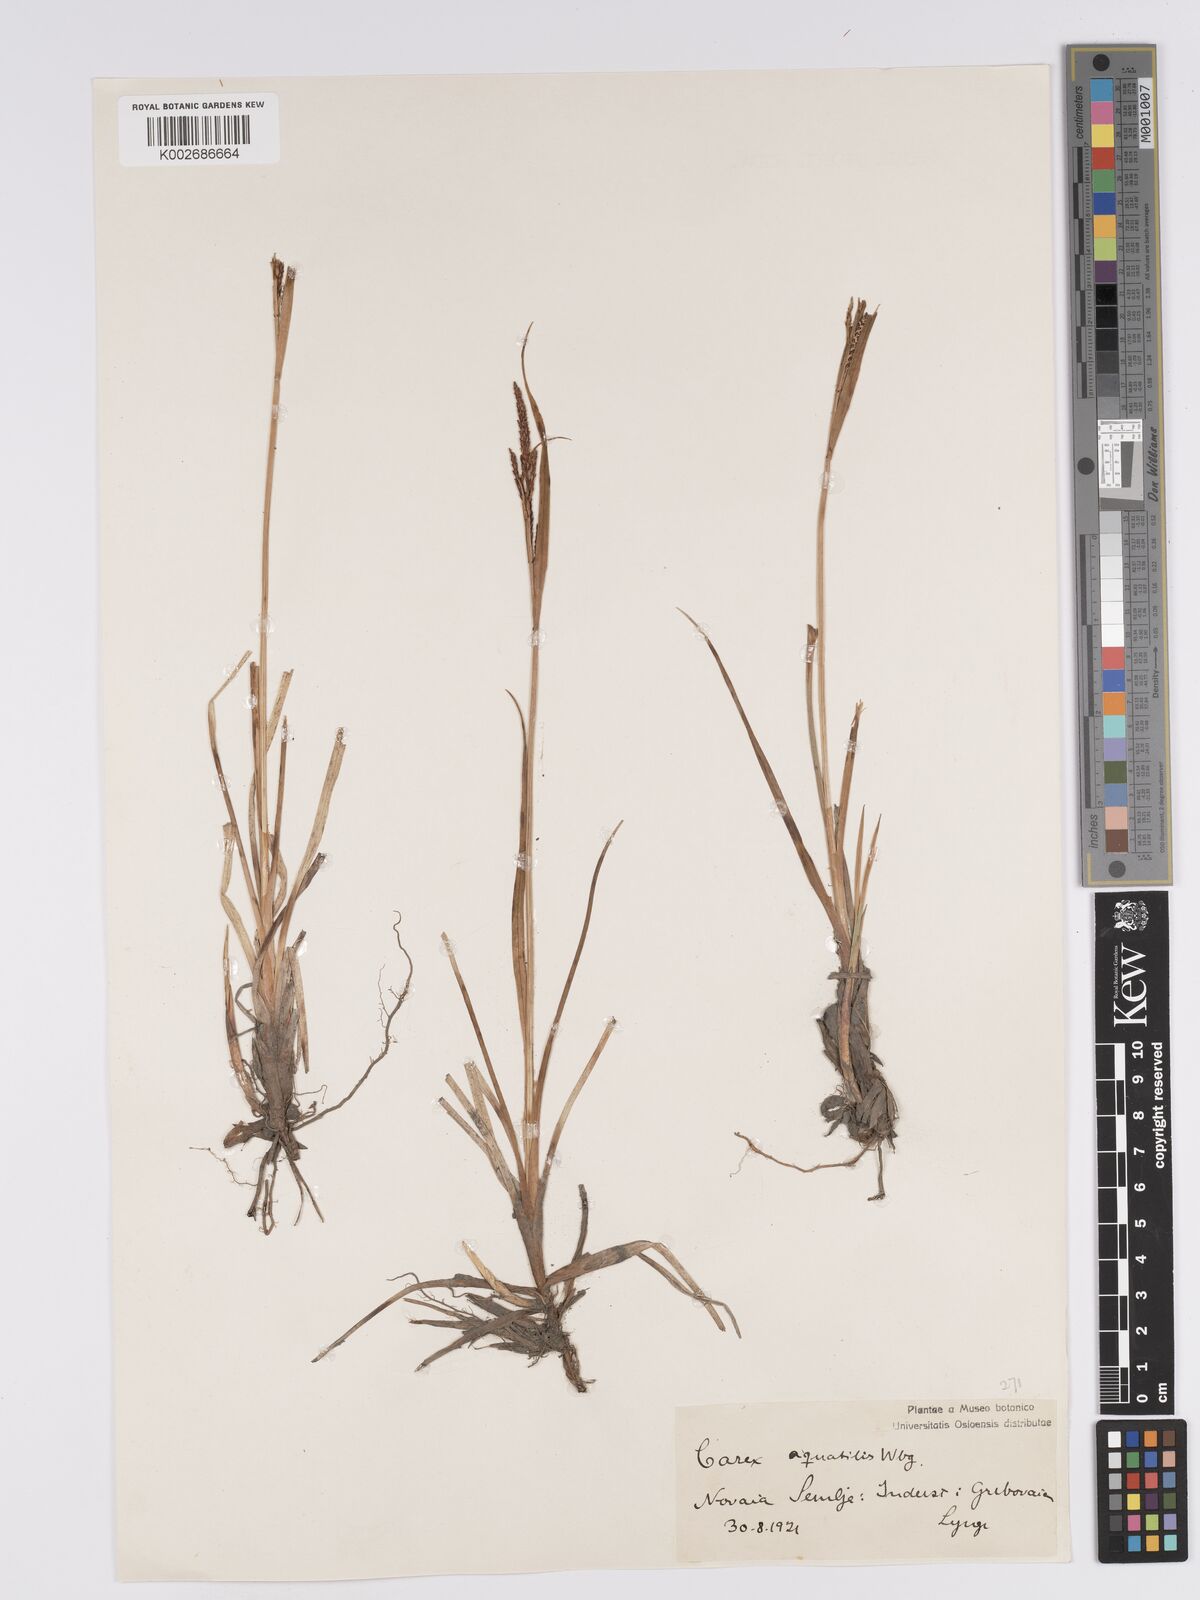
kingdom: Plantae
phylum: Tracheophyta
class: Liliopsida
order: Poales
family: Cyperaceae
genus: Carex
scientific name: Carex aquatilis
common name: Water sedge
